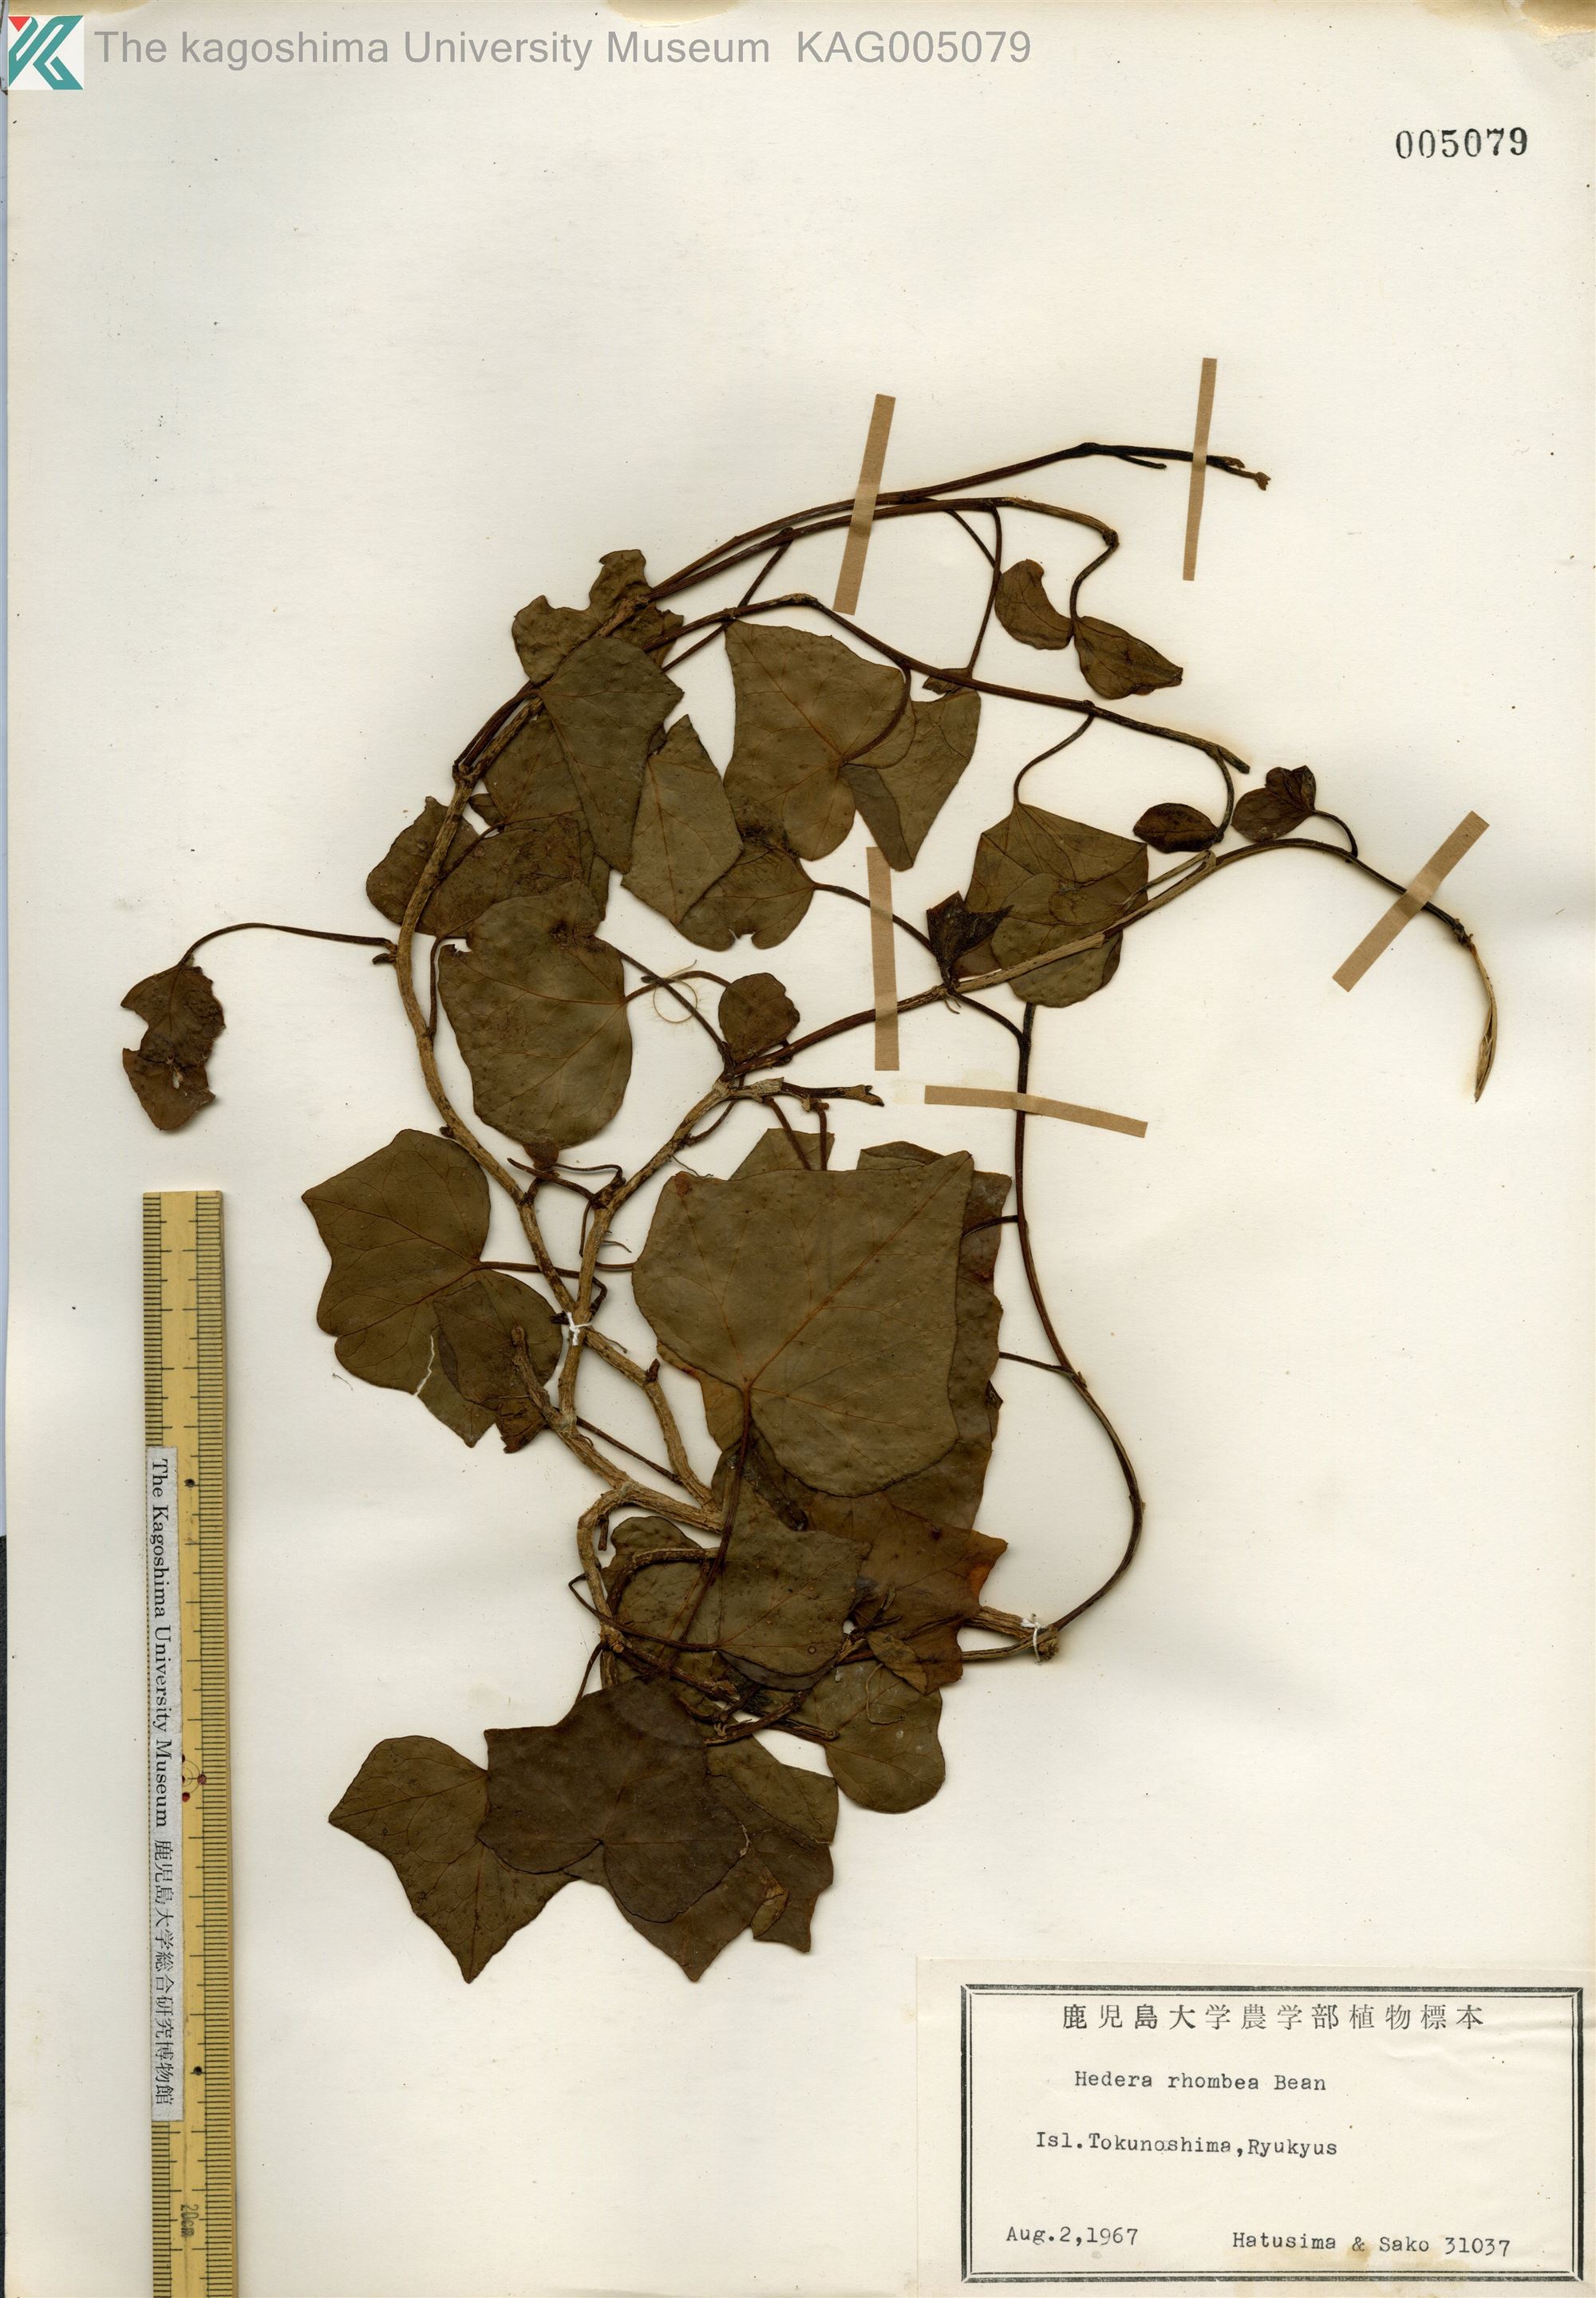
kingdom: Plantae
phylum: Tracheophyta
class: Magnoliopsida
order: Apiales
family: Araliaceae
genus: Hedera
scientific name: Hedera rhombea
